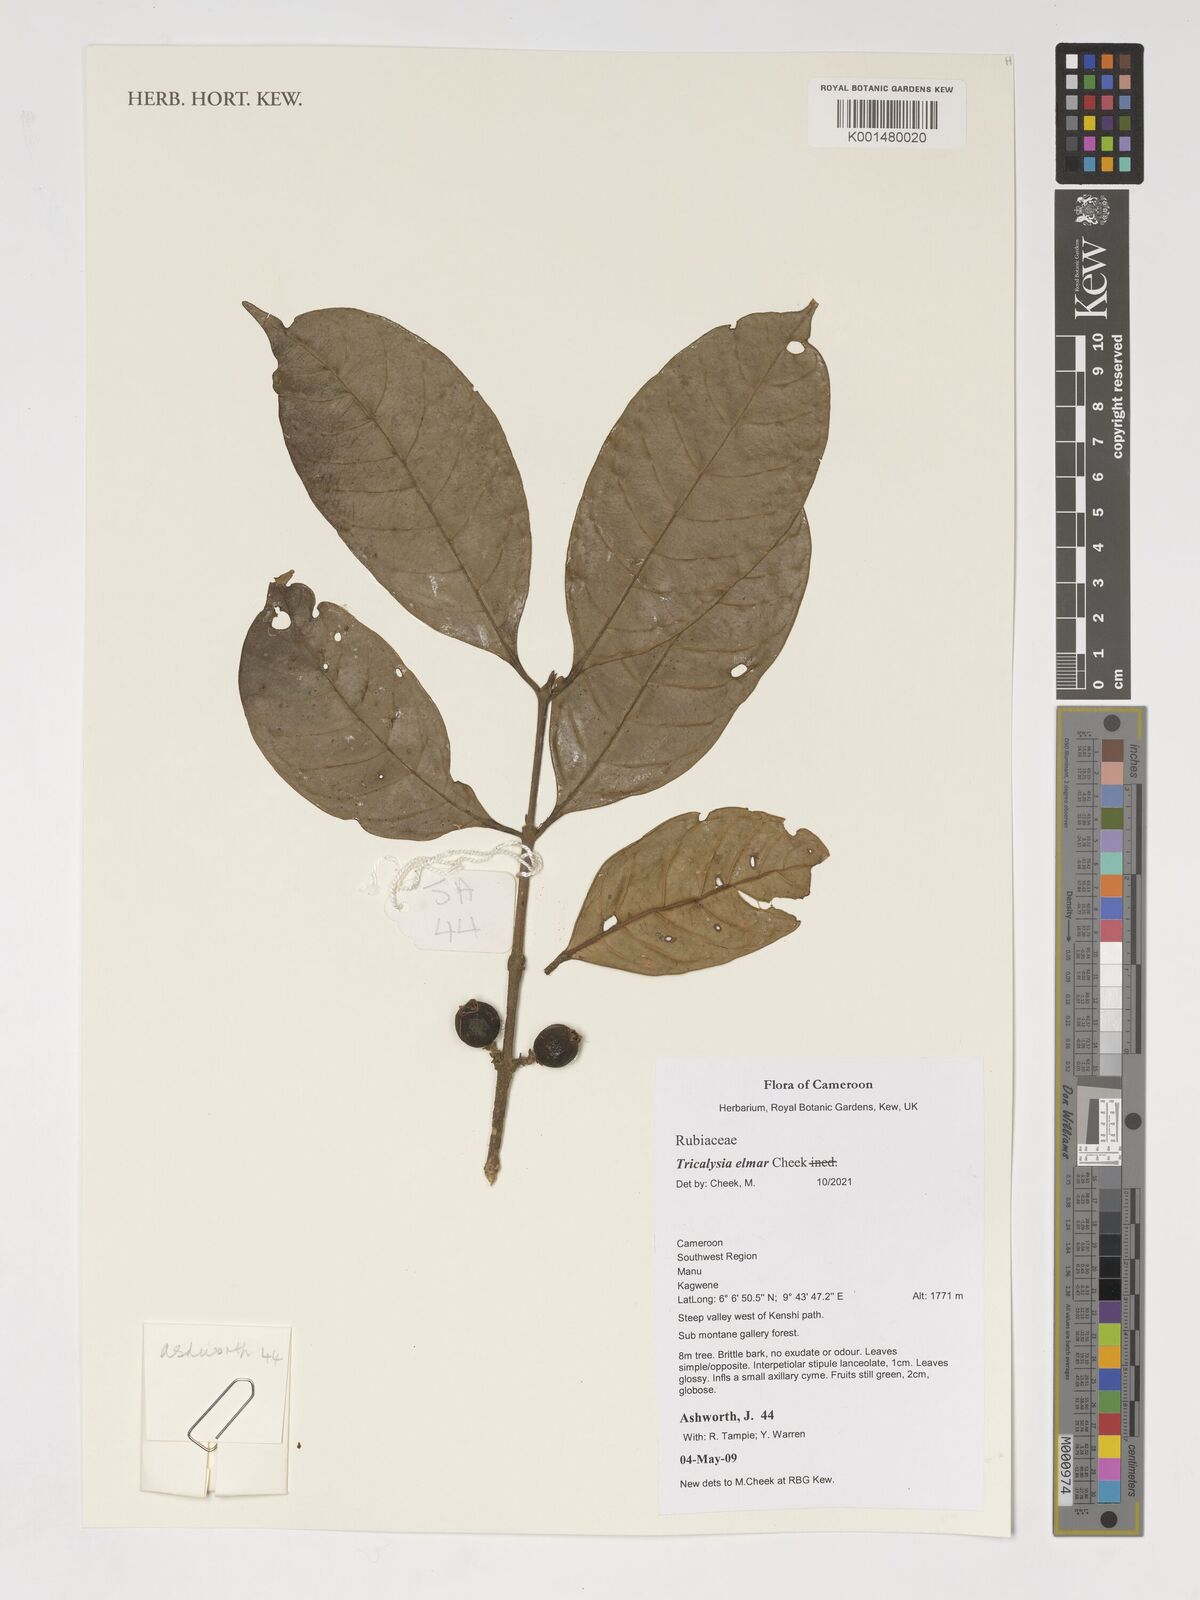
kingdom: Plantae
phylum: Tracheophyta
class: Magnoliopsida
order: Gentianales
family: Rubiaceae
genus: Tricalysia
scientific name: Tricalysia
